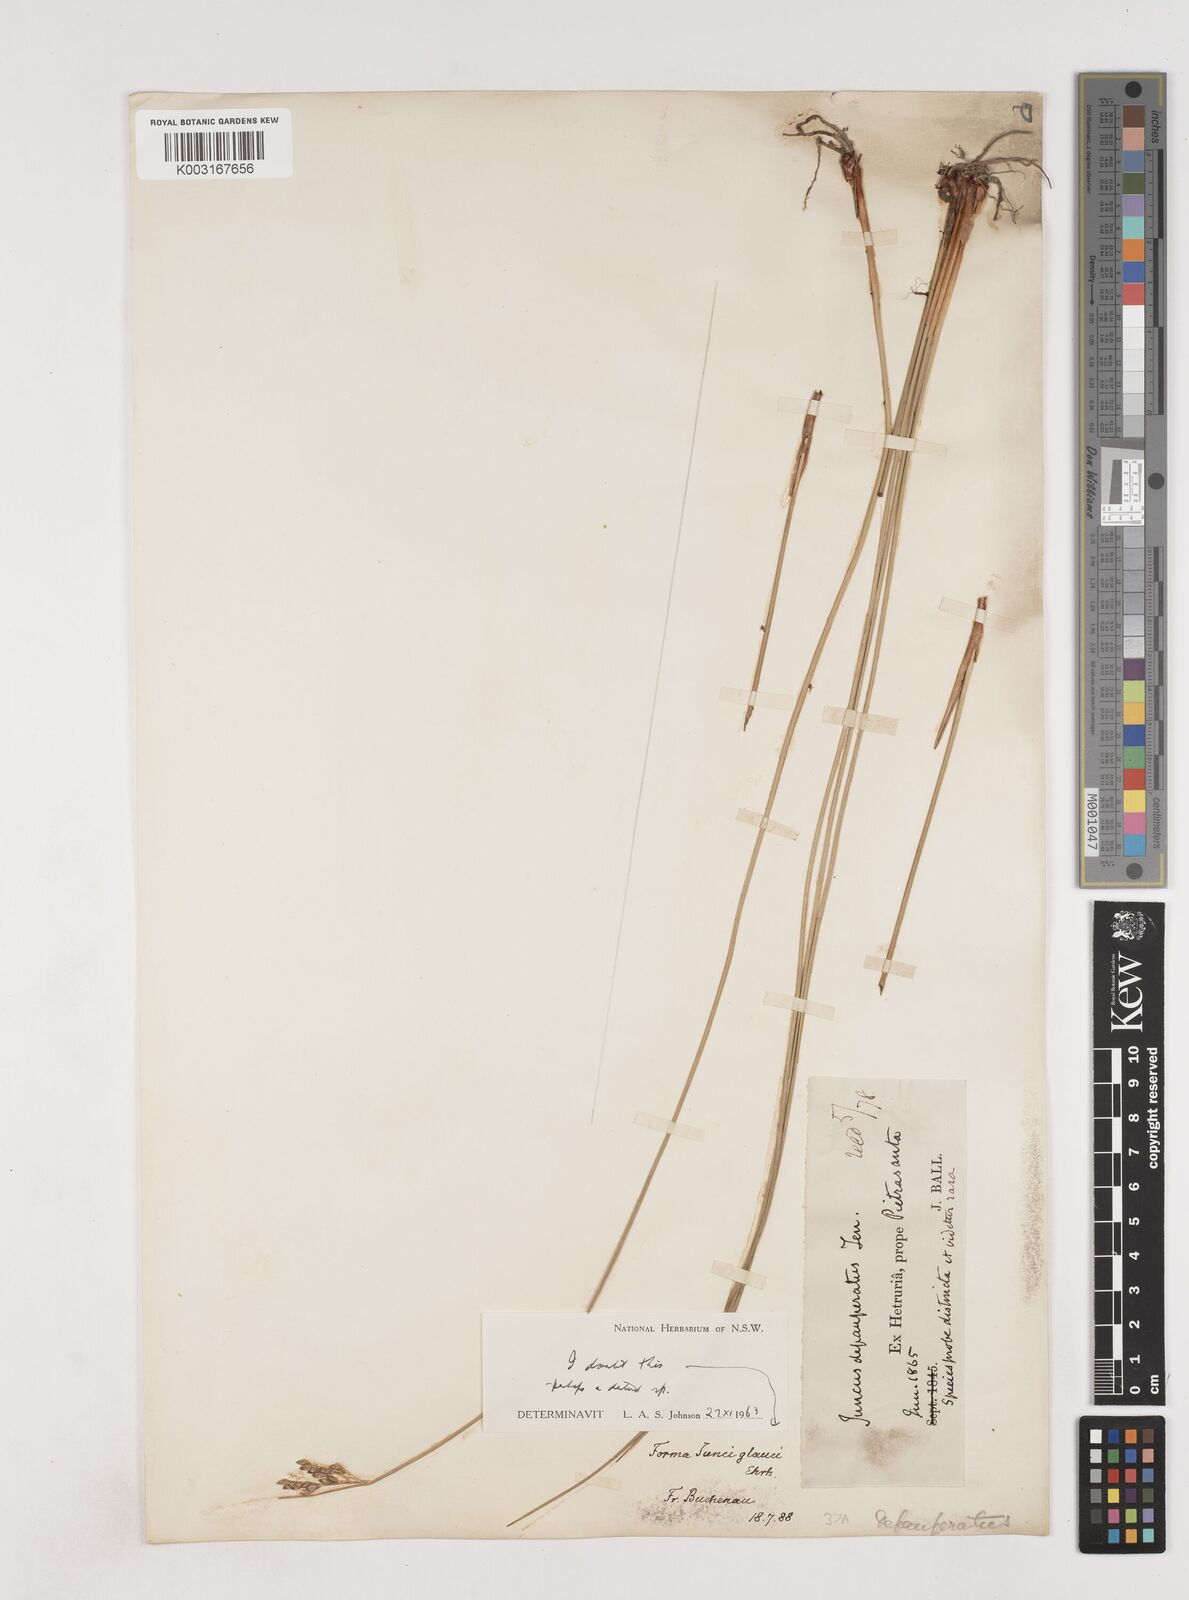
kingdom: Plantae
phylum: Tracheophyta
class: Liliopsida
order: Poales
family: Juncaceae
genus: Juncus
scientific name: Juncus depauperatus
